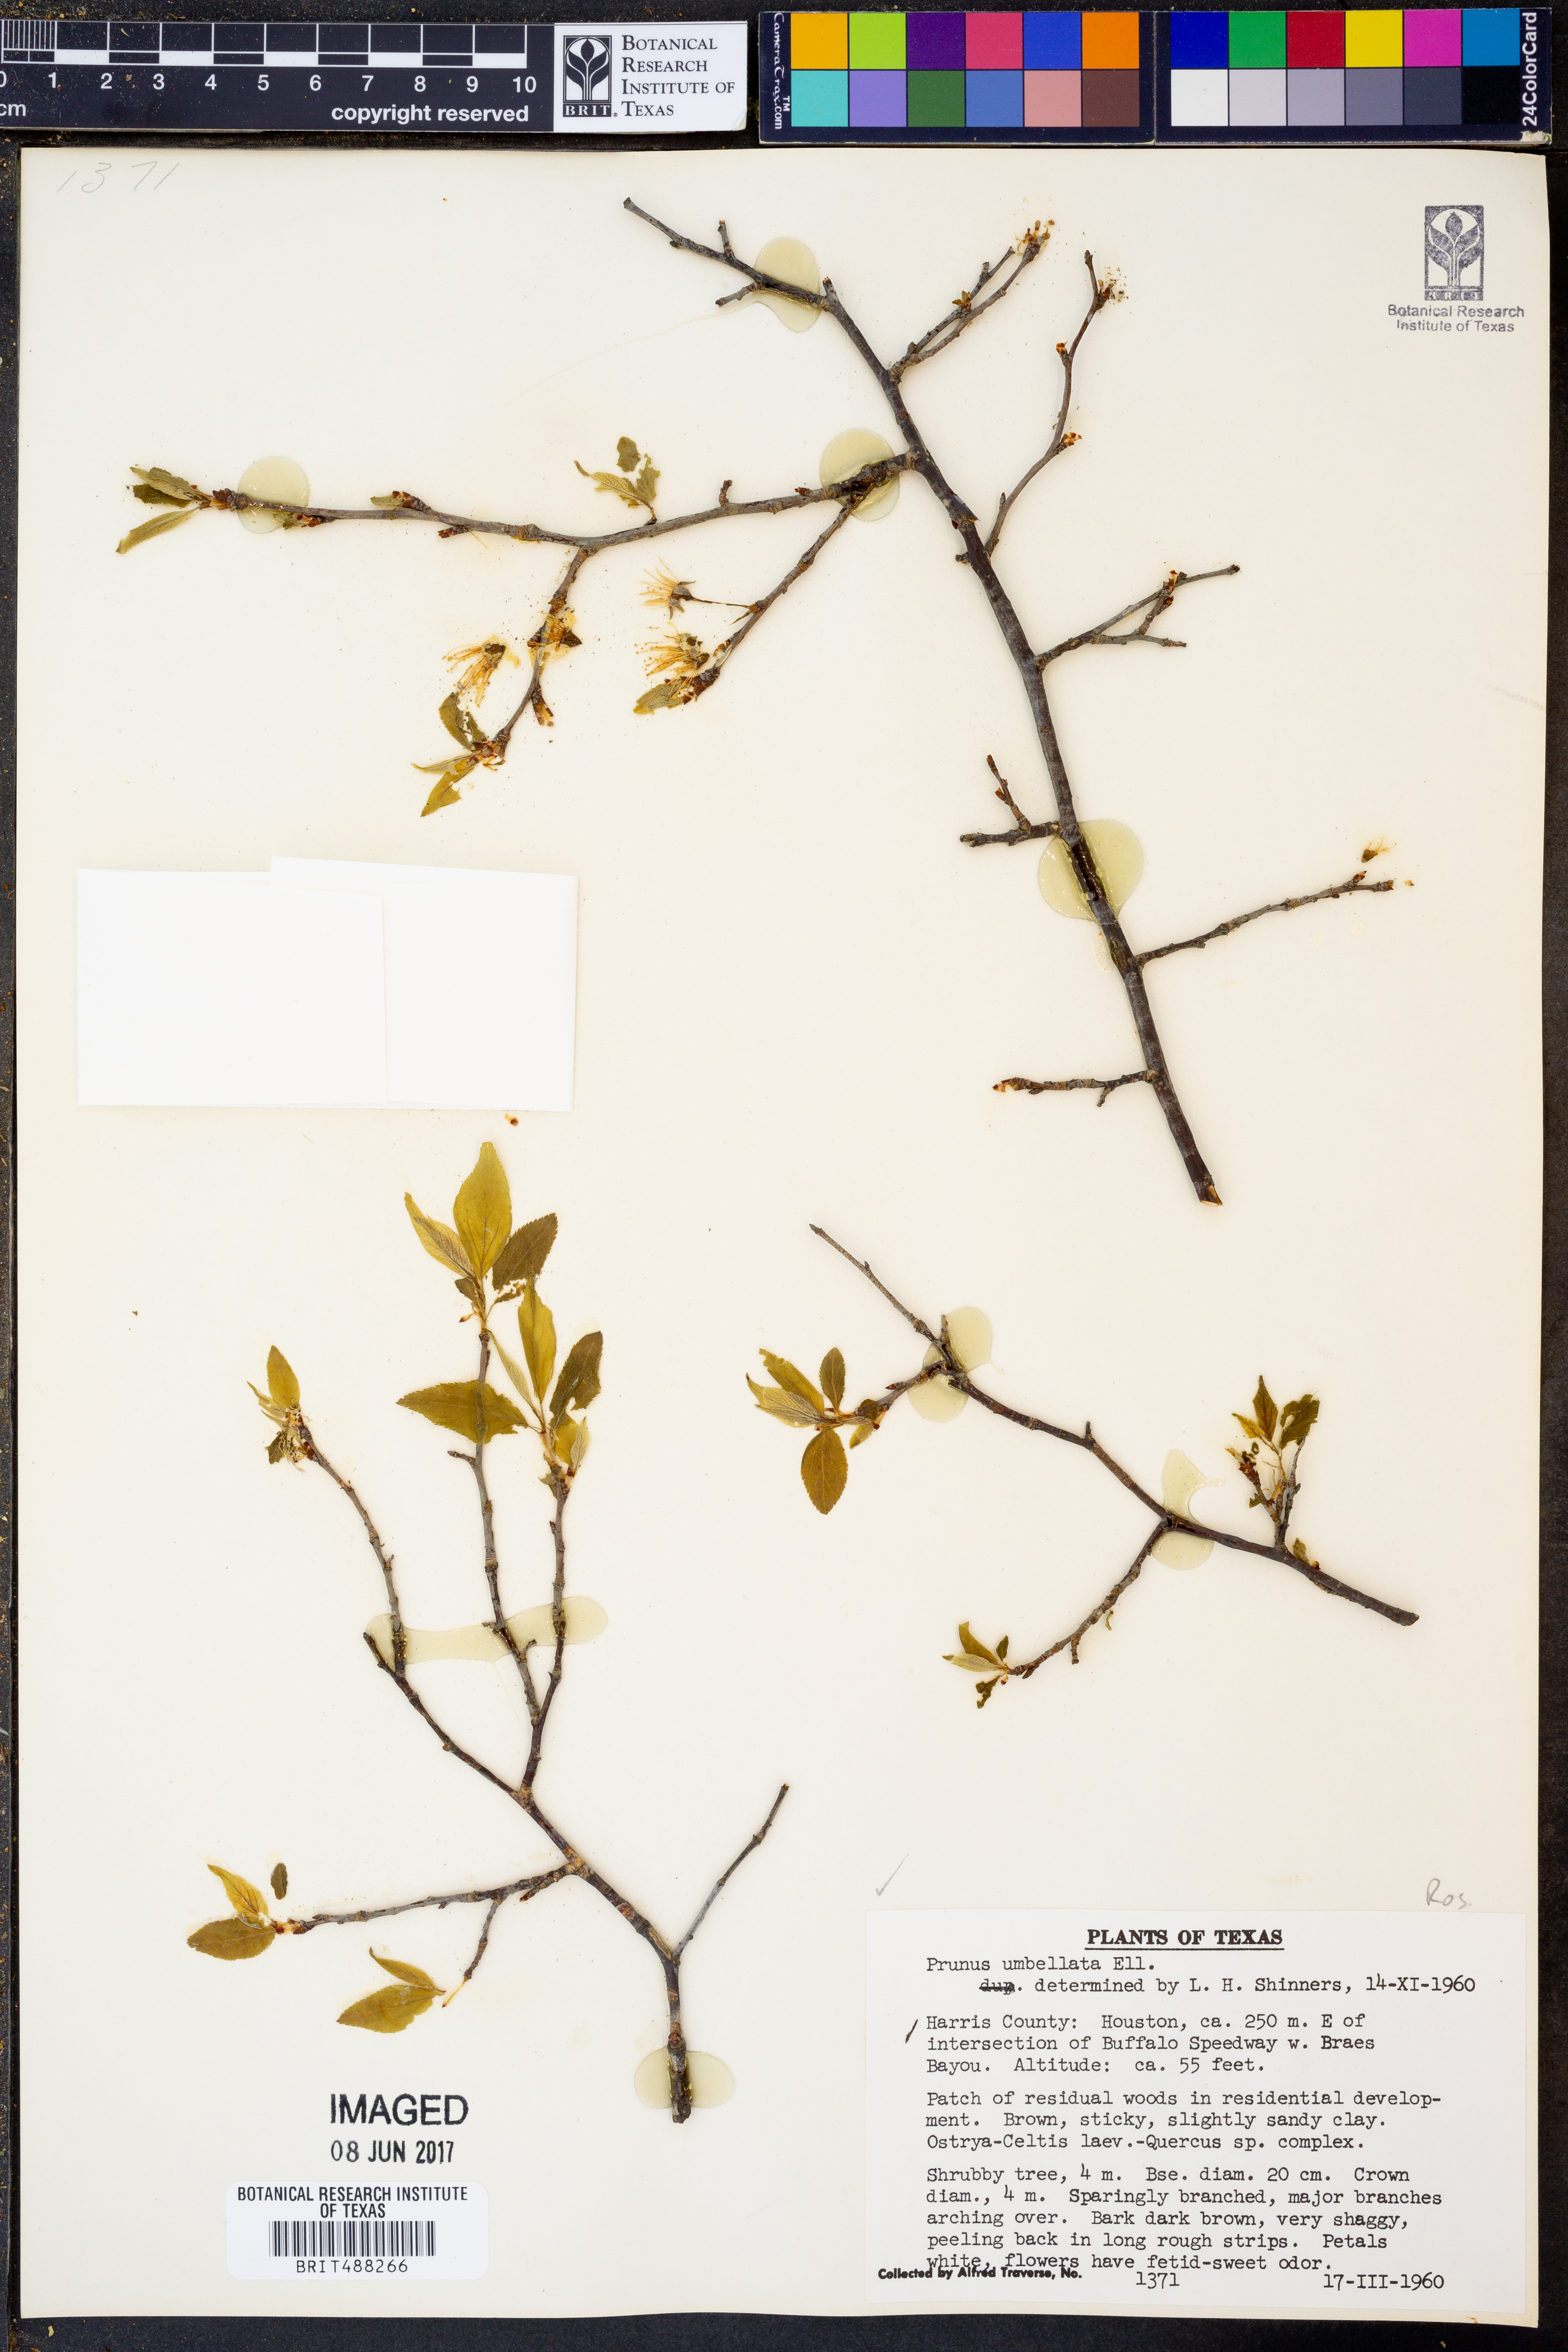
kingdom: Plantae
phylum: Tracheophyta
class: Magnoliopsida
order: Rosales
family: Rosaceae
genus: Prunus
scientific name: Prunus umbellata
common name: Allegheny plum
